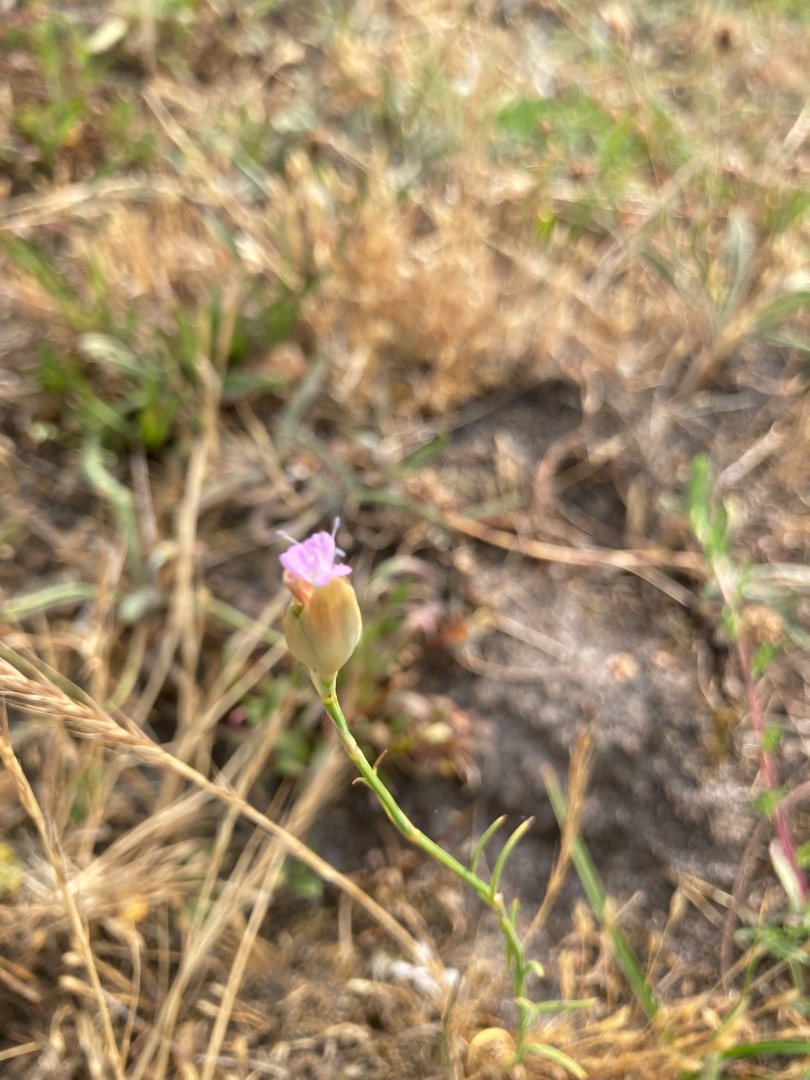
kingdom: Plantae
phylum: Tracheophyta
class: Magnoliopsida
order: Caryophyllales
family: Caryophyllaceae
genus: Petrorhagia
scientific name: Petrorhagia prolifera
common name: Knopnellike
